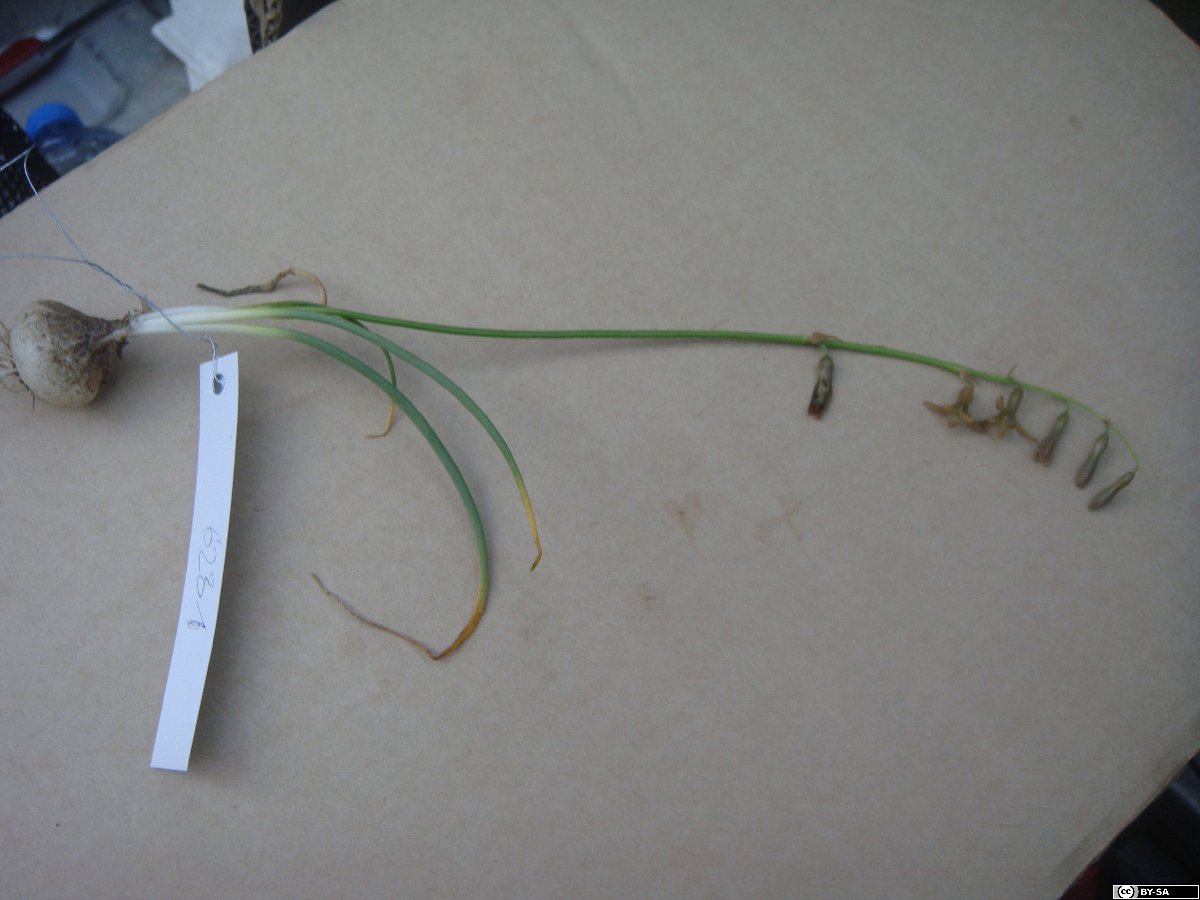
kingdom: Plantae
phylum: Tracheophyta
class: Liliopsida
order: Asparagales
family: Asparagaceae
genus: Dipcadi
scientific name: Dipcadi
